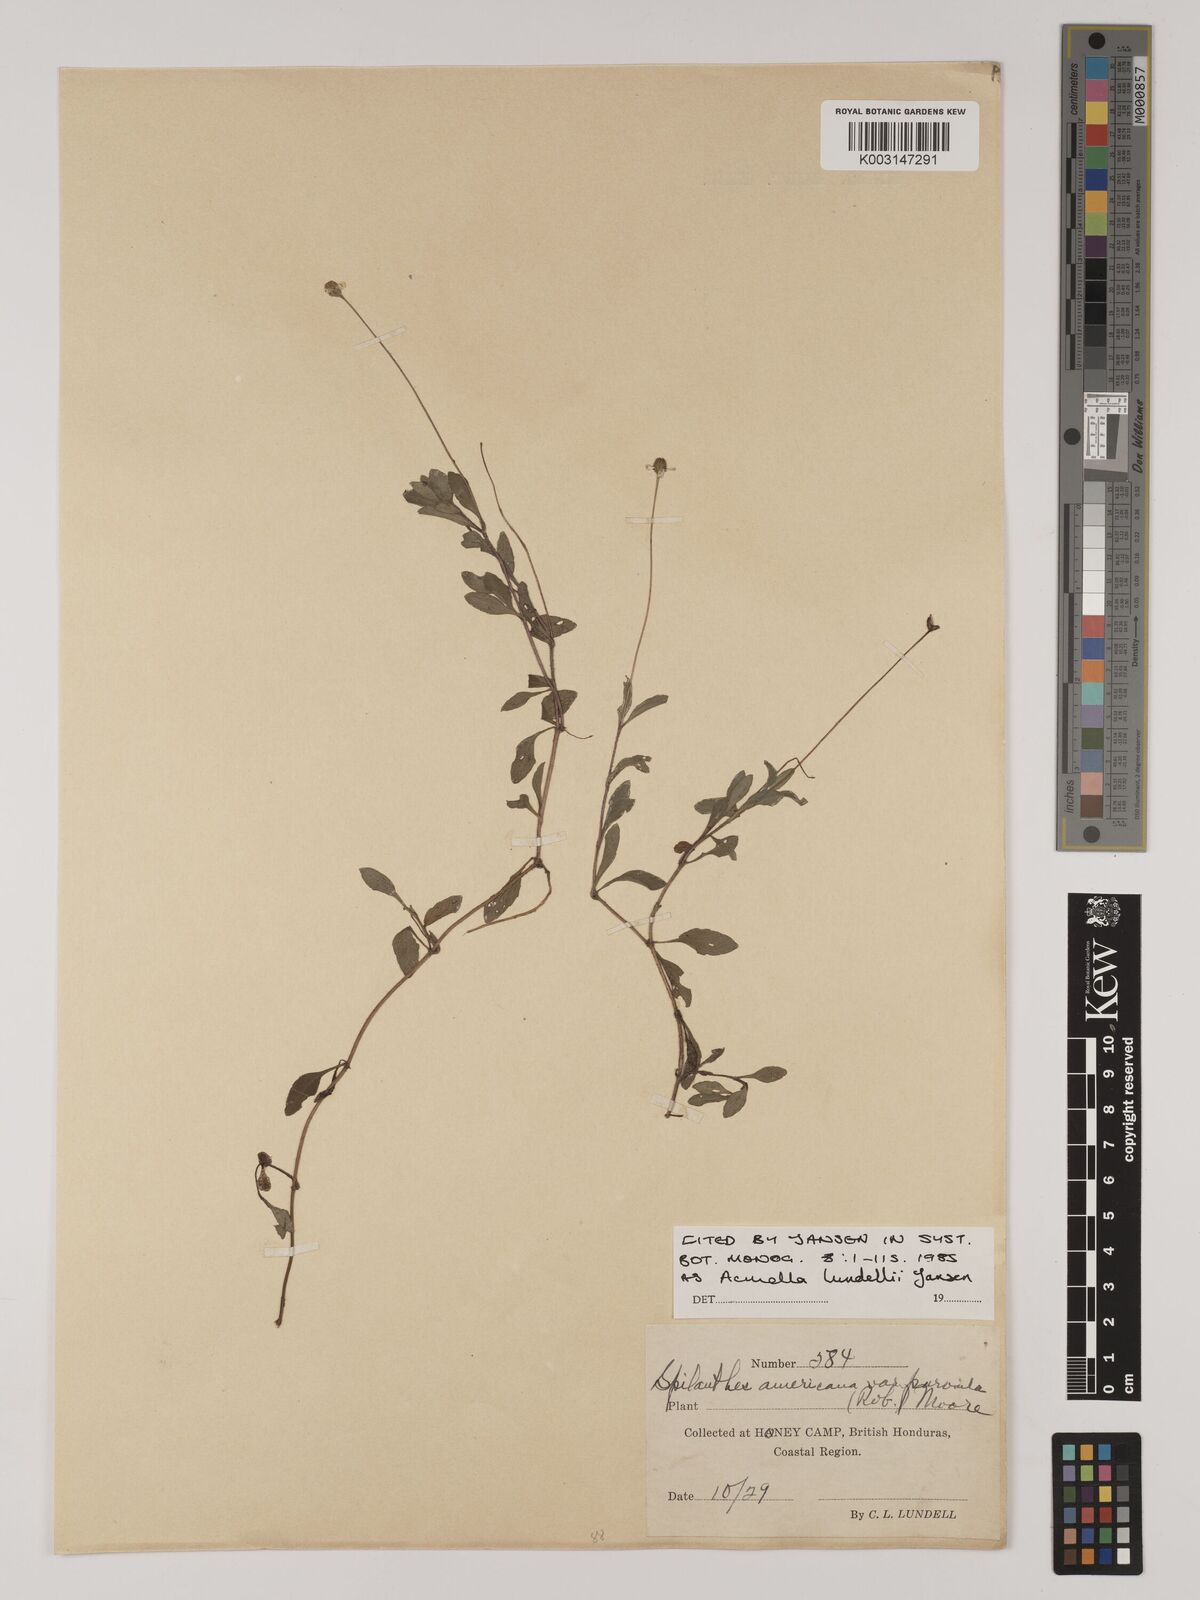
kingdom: Plantae
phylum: Tracheophyta
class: Magnoliopsida
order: Asterales
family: Asteraceae
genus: Acmella
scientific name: Acmella lundellii
